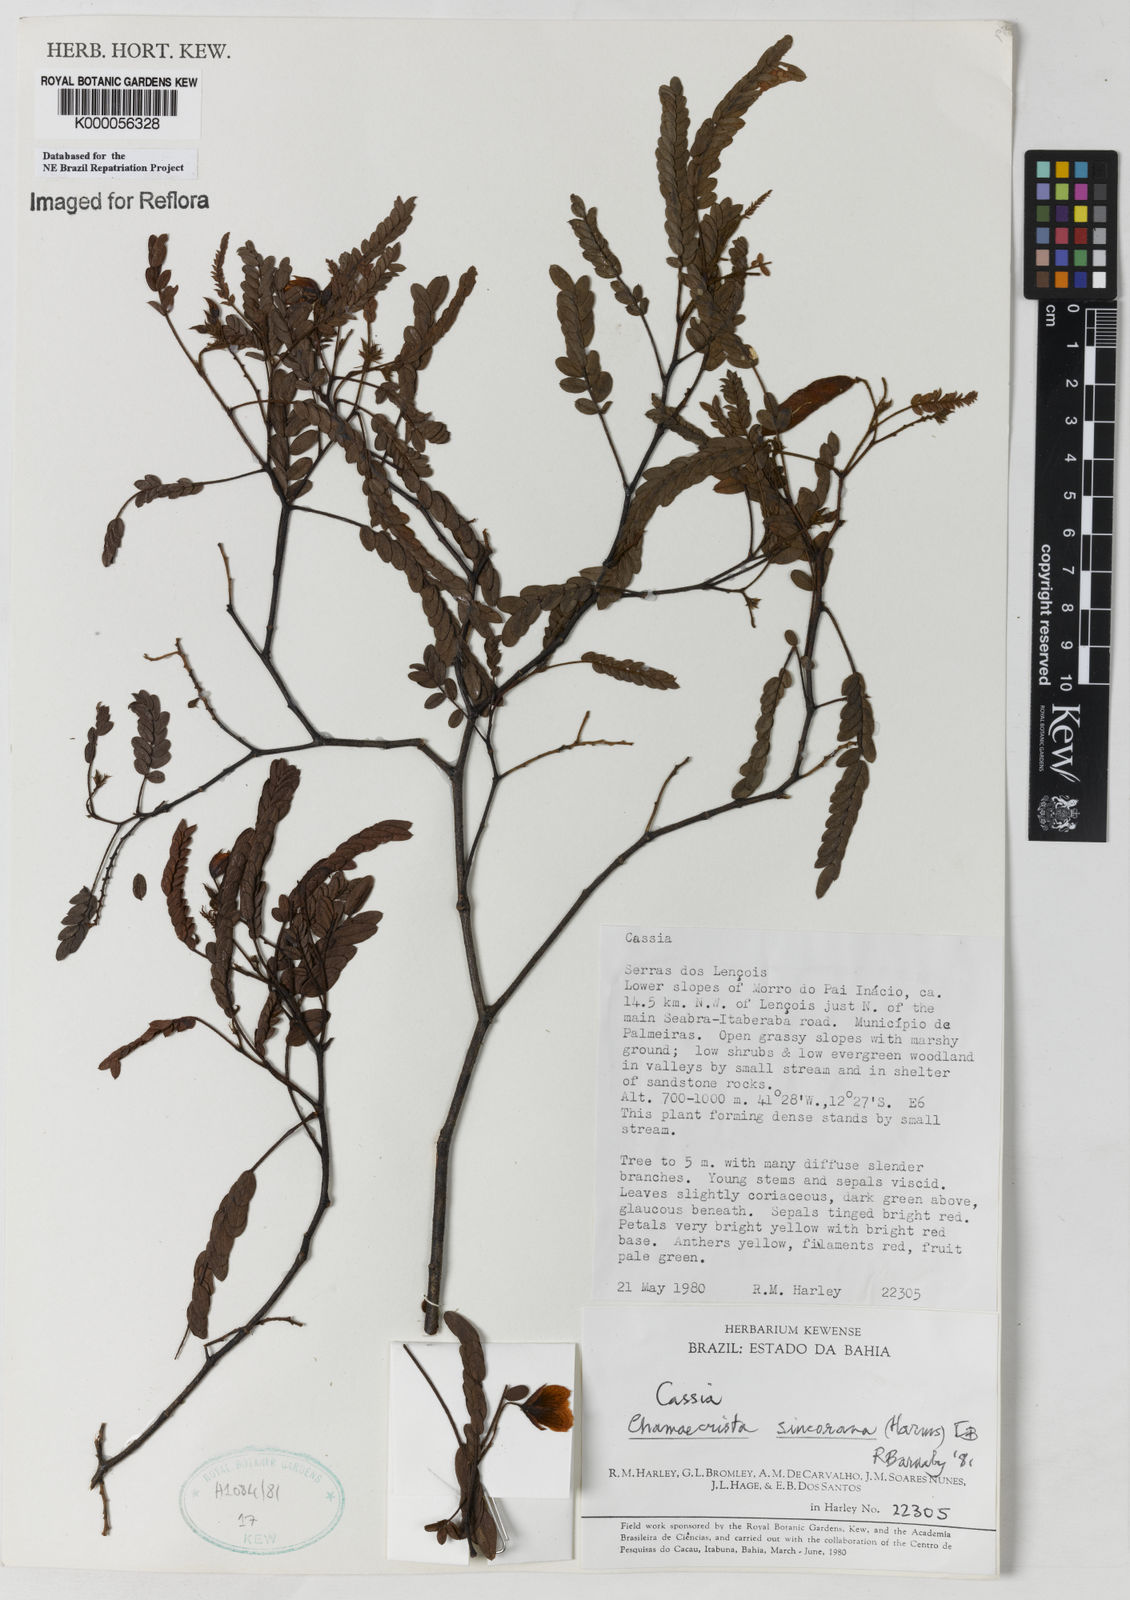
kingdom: Plantae
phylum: Tracheophyta
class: Magnoliopsida
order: Fabales
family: Fabaceae
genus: Chamaecrista
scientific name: Chamaecrista sincorana
